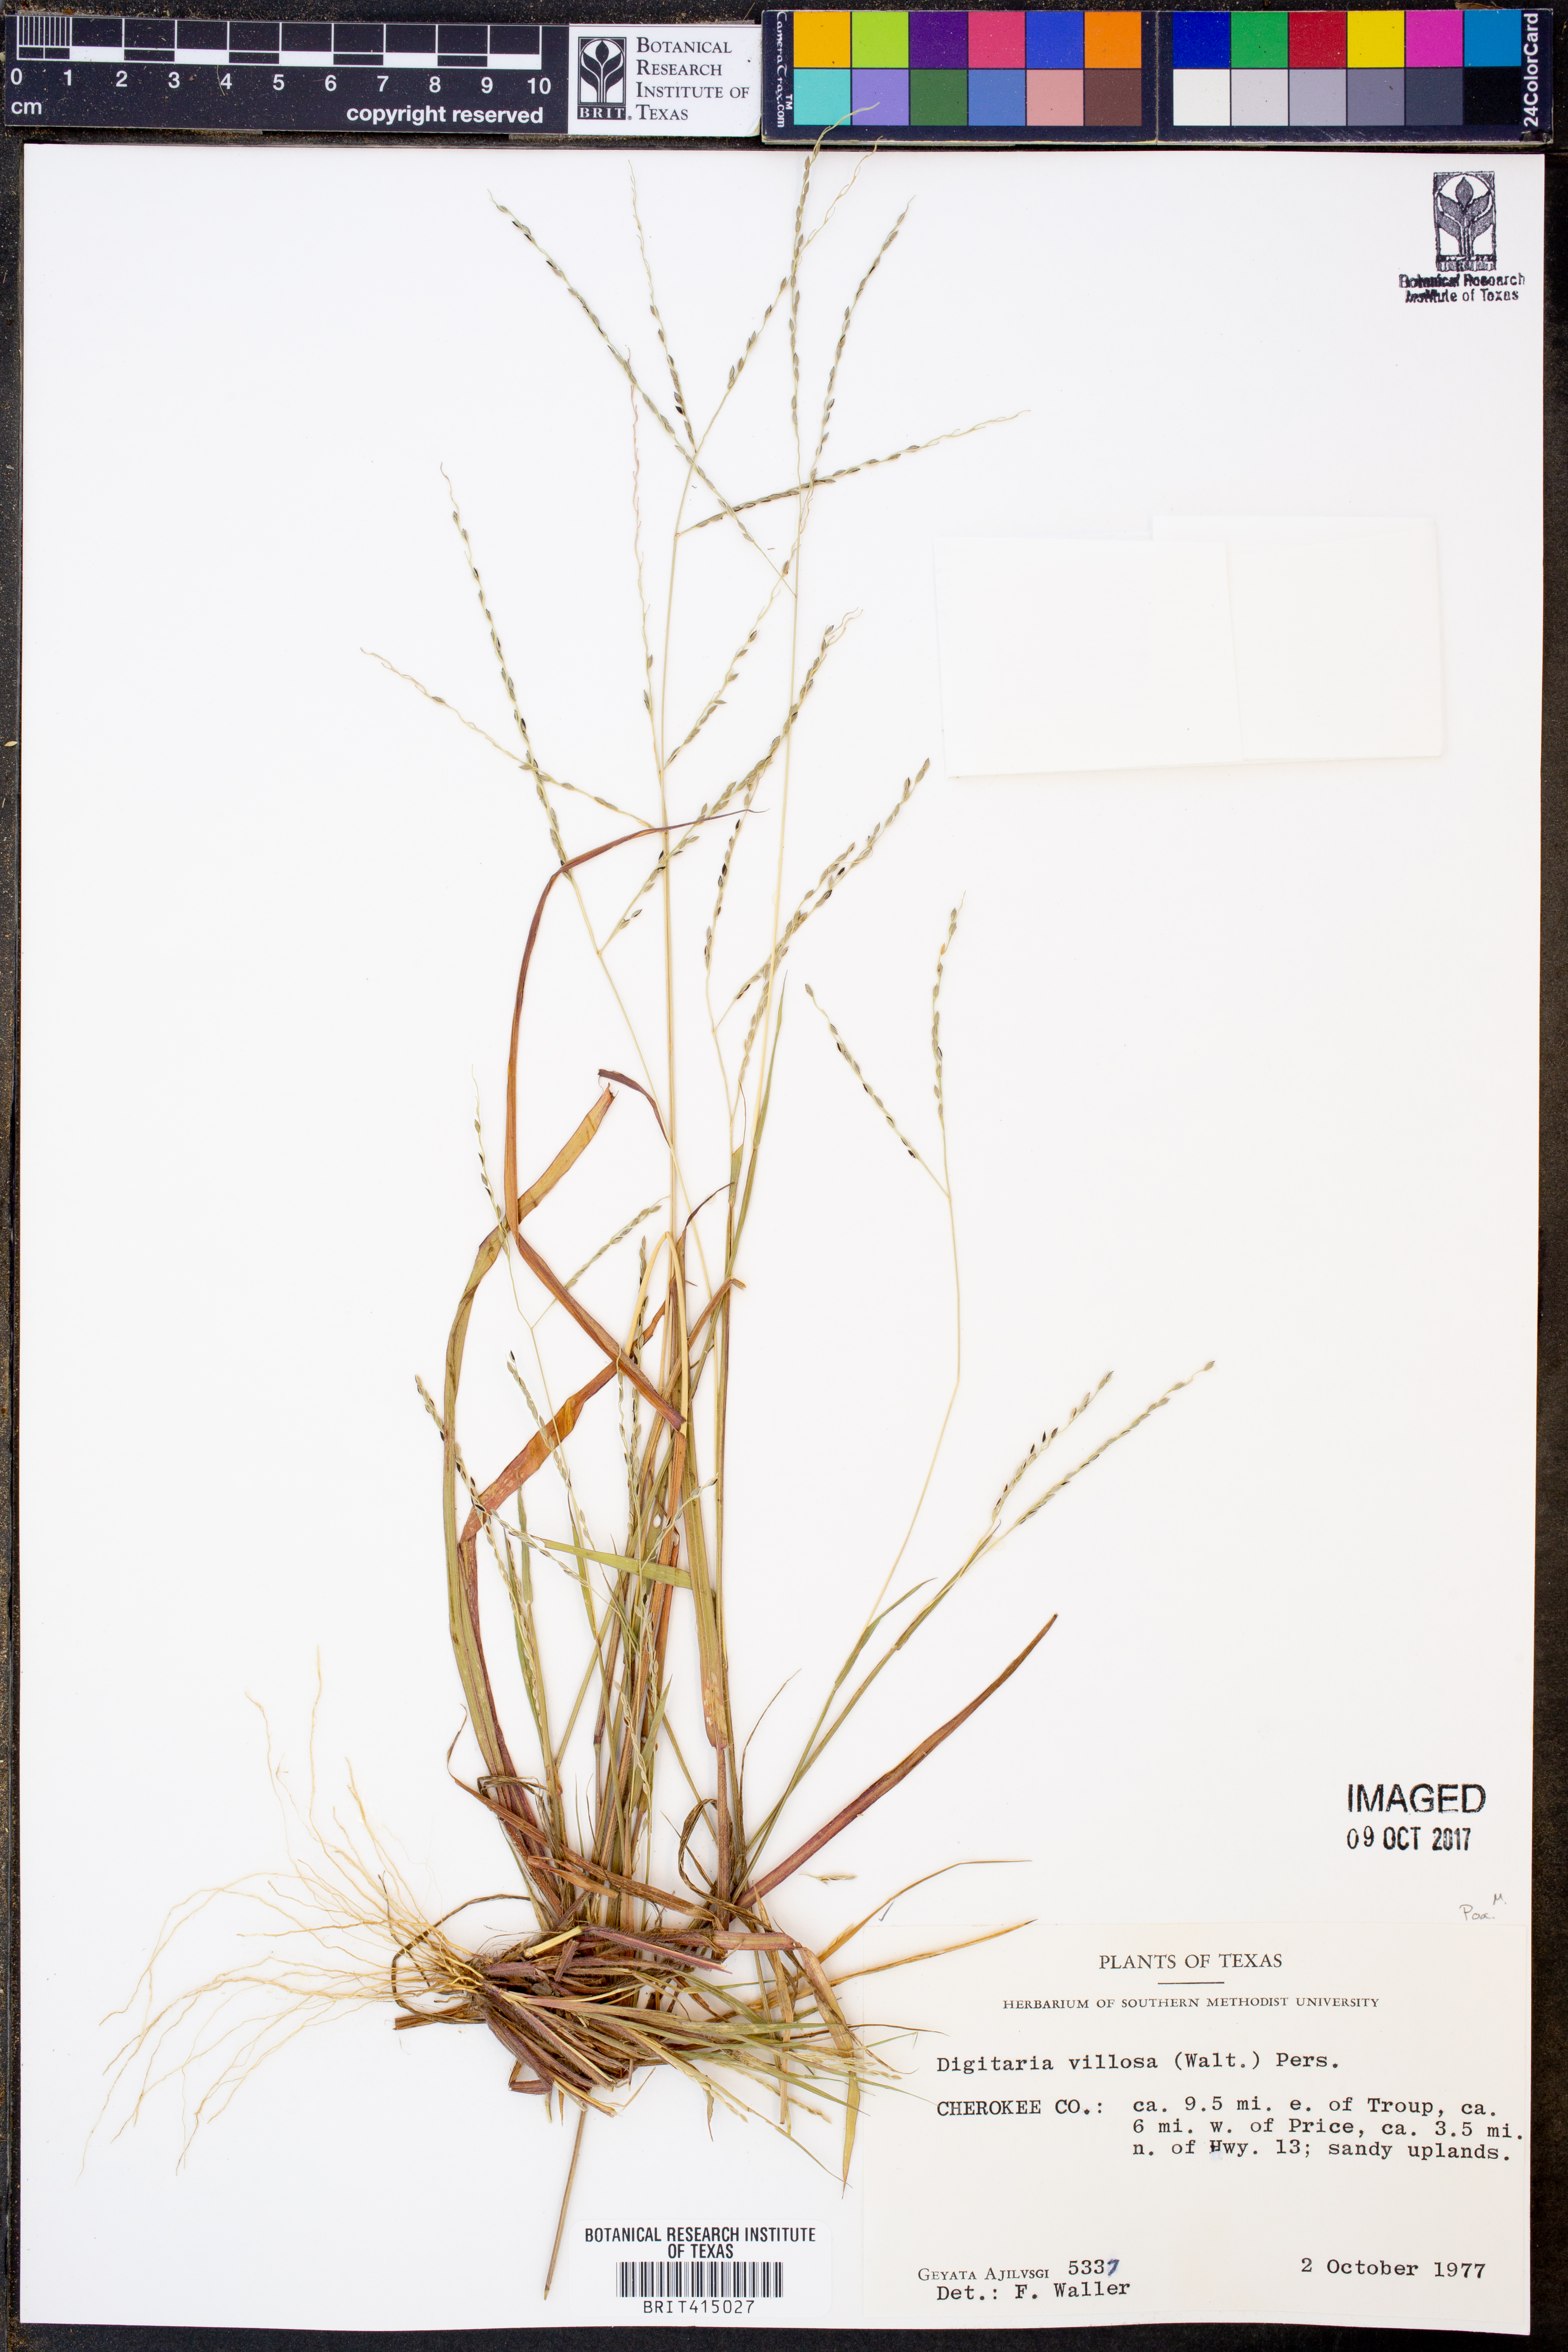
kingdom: Plantae
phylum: Tracheophyta
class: Liliopsida
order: Poales
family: Poaceae
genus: Digitaria
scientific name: Digitaria villosa
